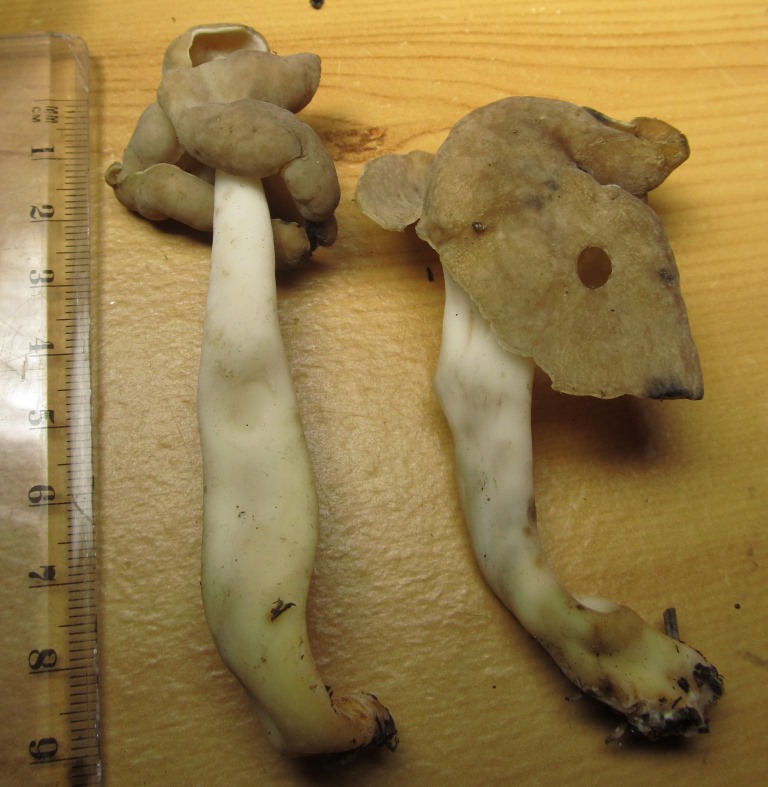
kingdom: Fungi
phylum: Ascomycota
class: Pezizomycetes
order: Pezizales
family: Helvellaceae
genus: Helvella
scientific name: Helvella elastica
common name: elastik-foldhat
